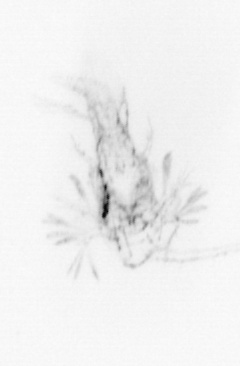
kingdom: Animalia
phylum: Arthropoda
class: Copepoda
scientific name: Copepoda
